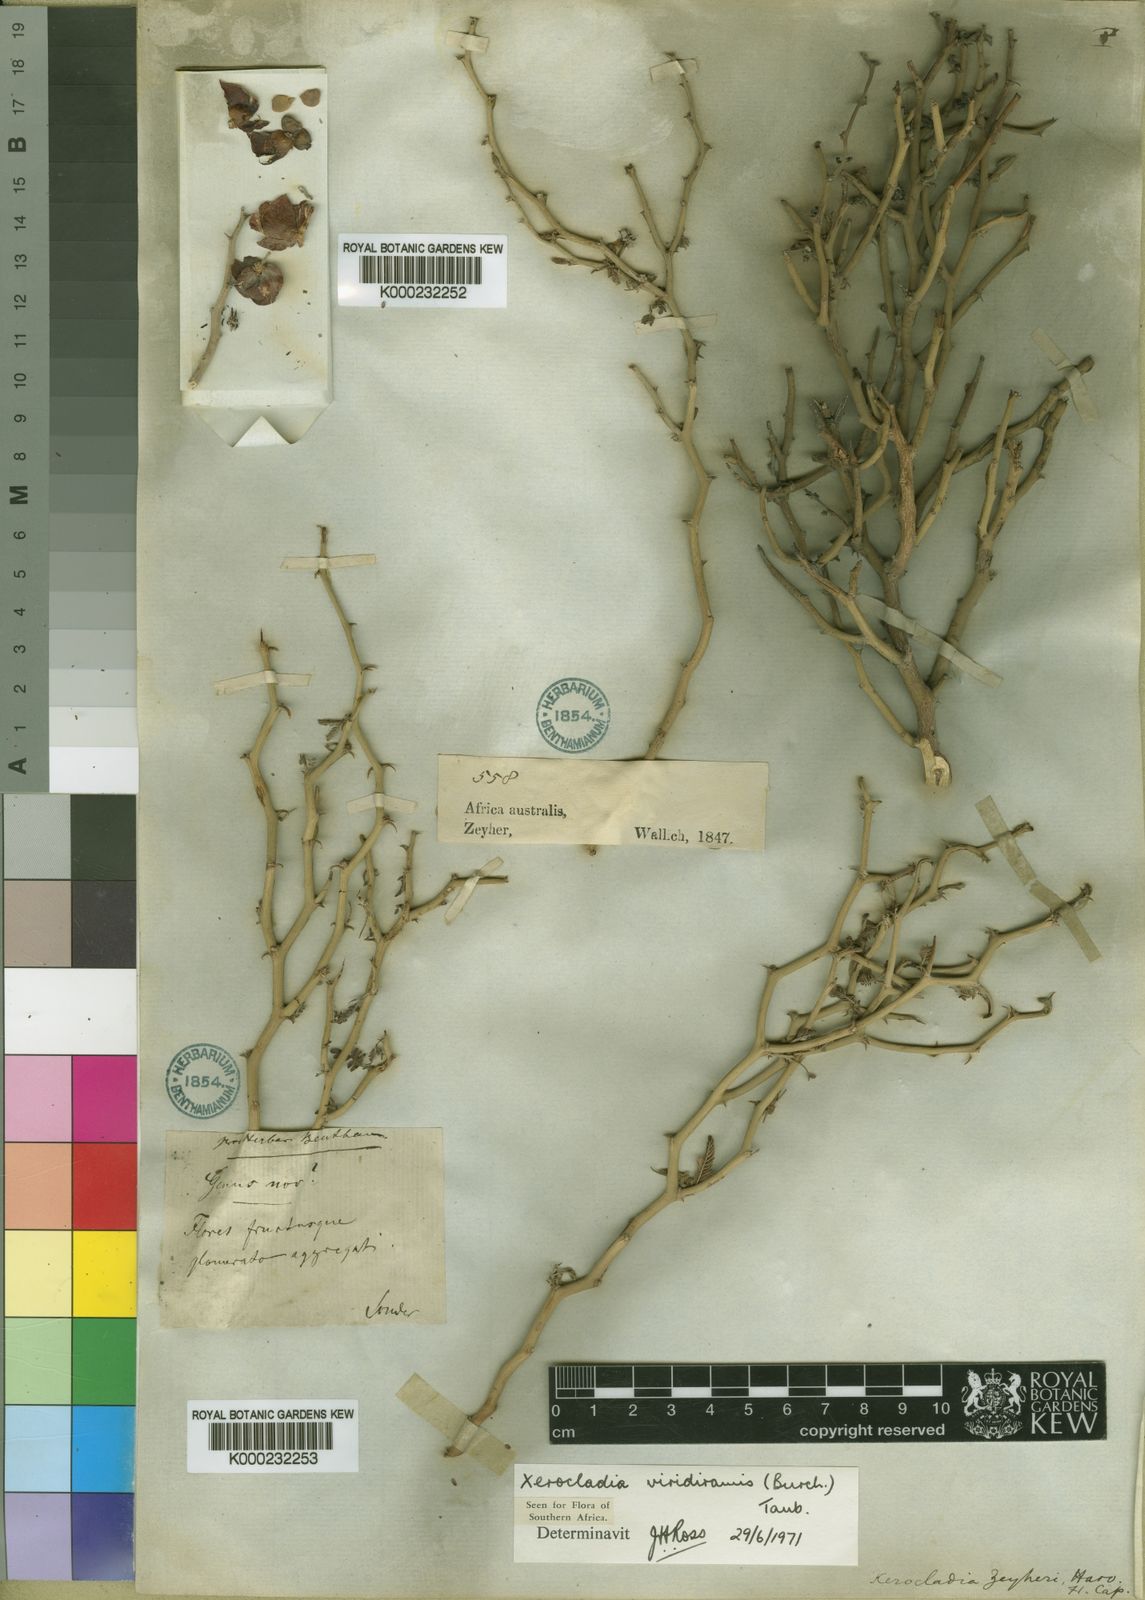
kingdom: Plantae
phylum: Tracheophyta
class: Magnoliopsida
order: Fabales
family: Fabaceae
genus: Xerocladia
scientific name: Xerocladia viridiramis
